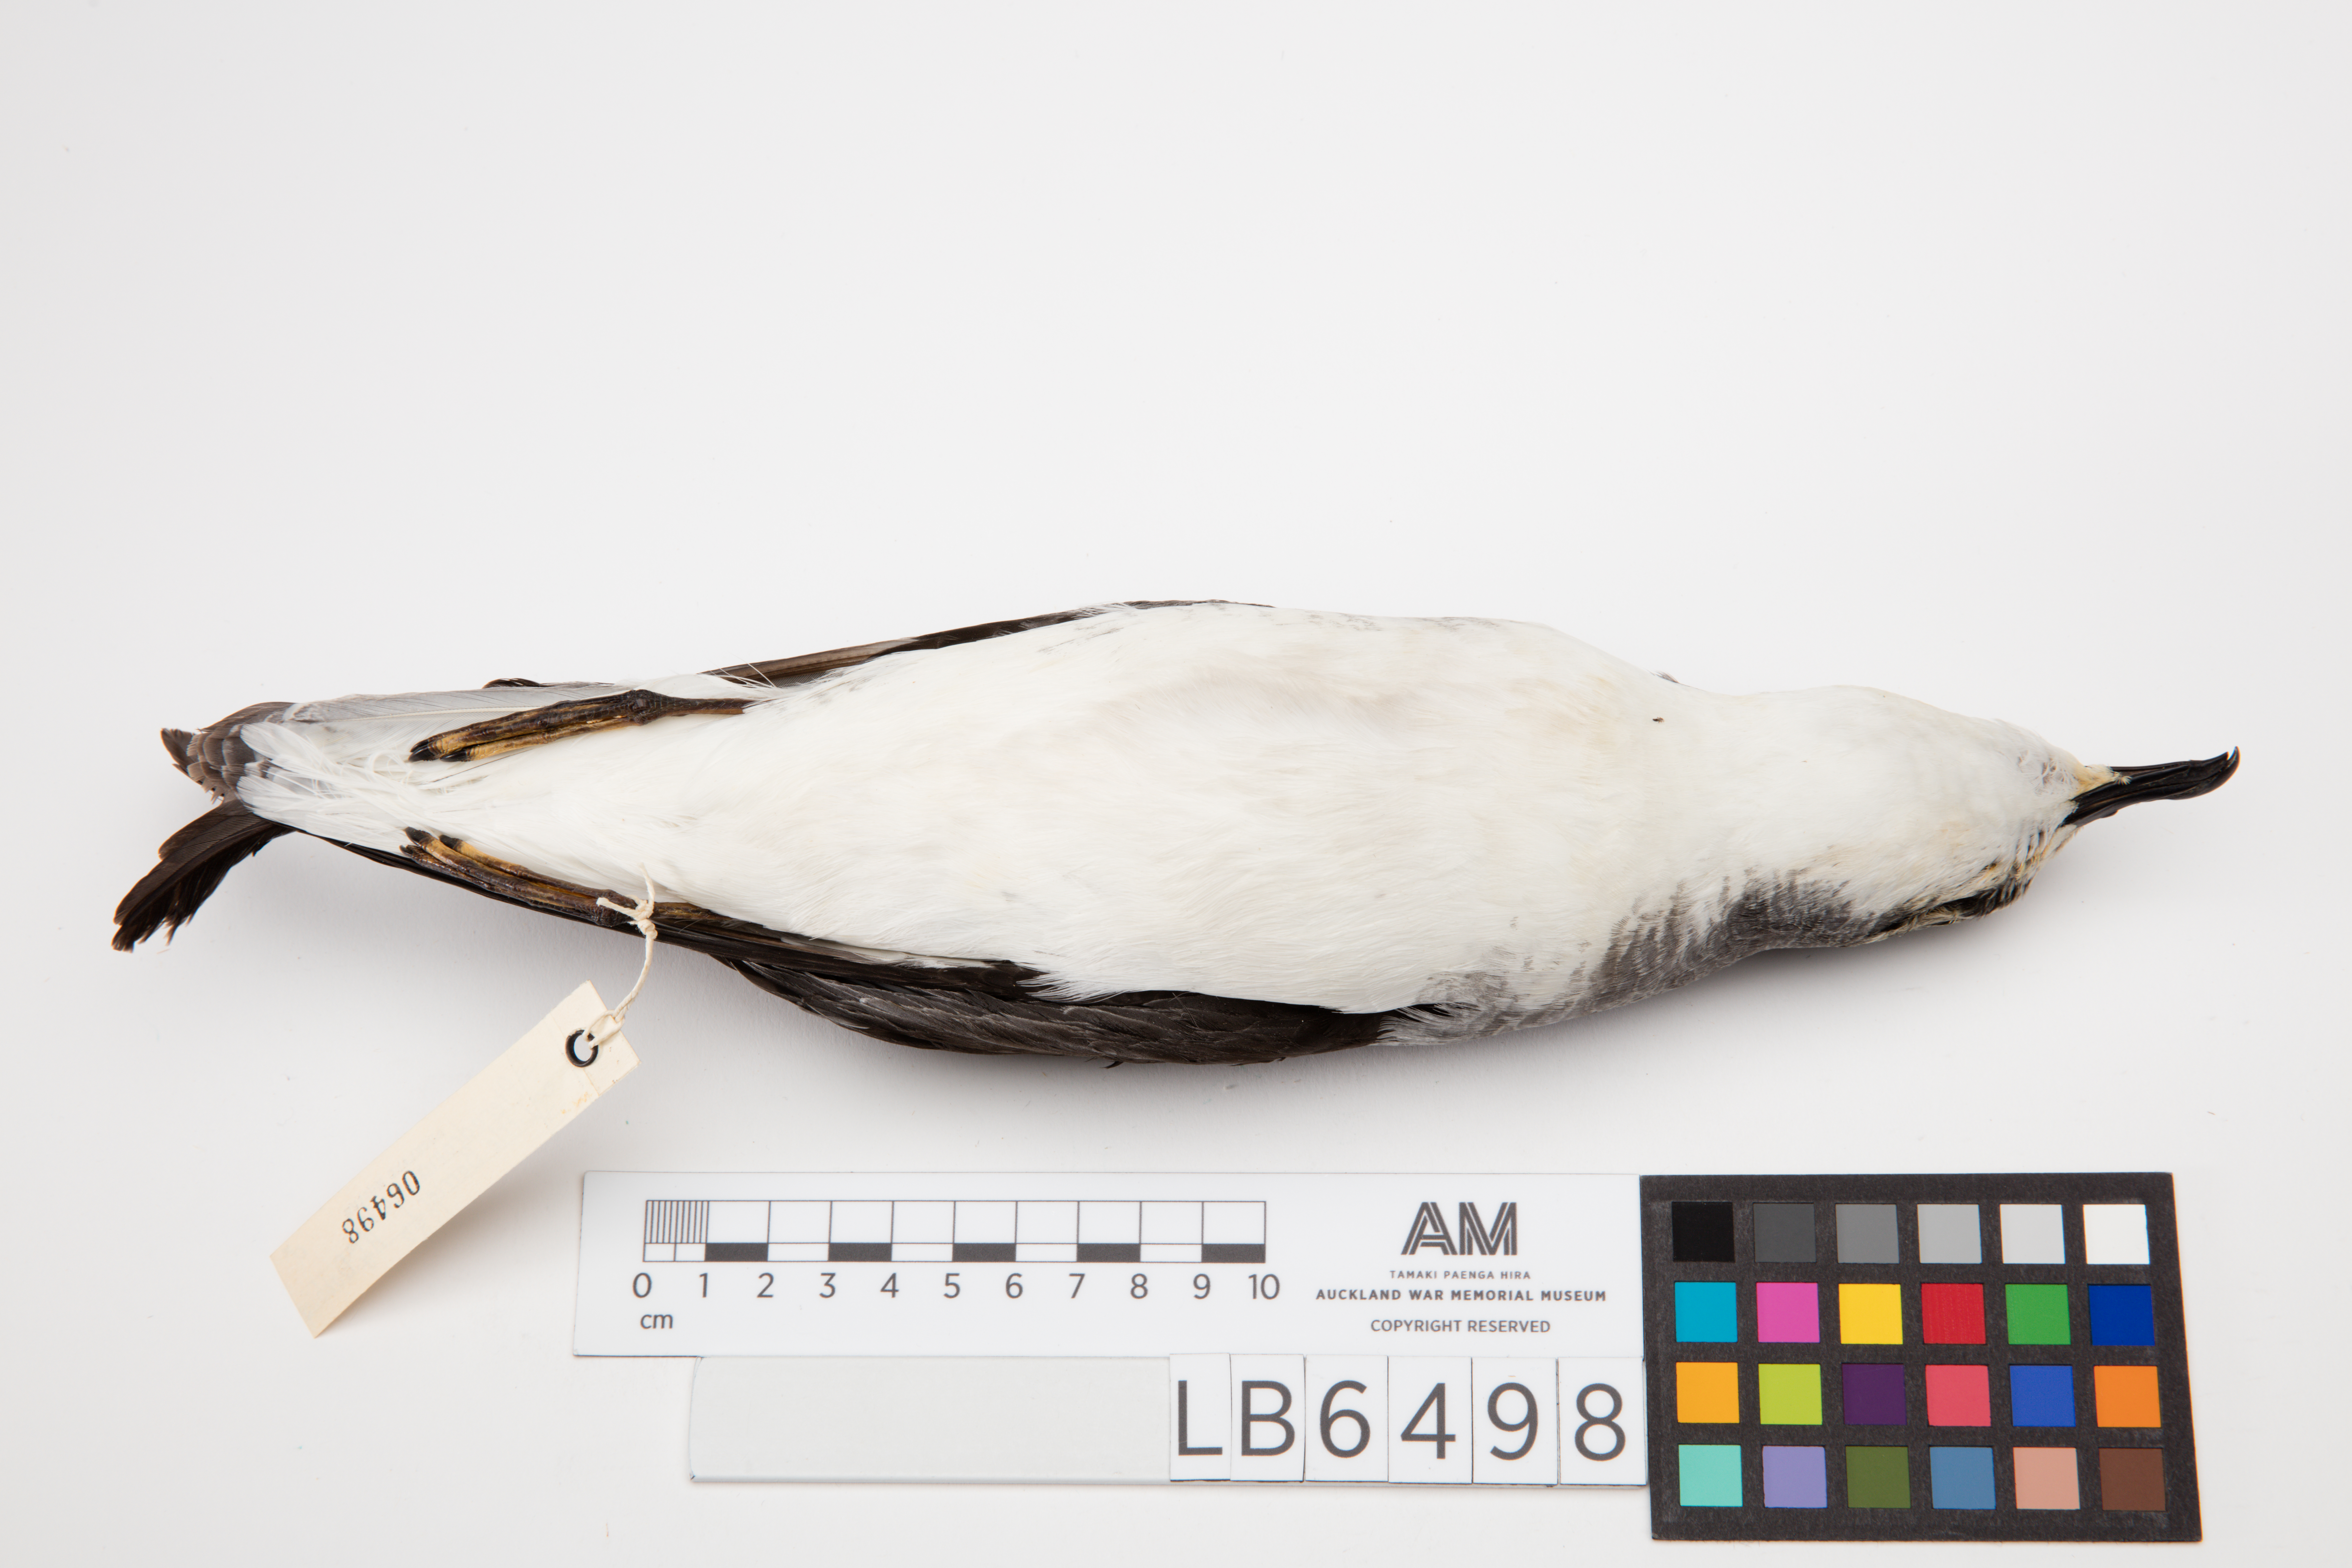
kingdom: Animalia
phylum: Chordata
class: Aves
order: Procellariiformes
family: Procellariidae
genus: Pterodroma
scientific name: Pterodroma cookii
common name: Cook's petrel
